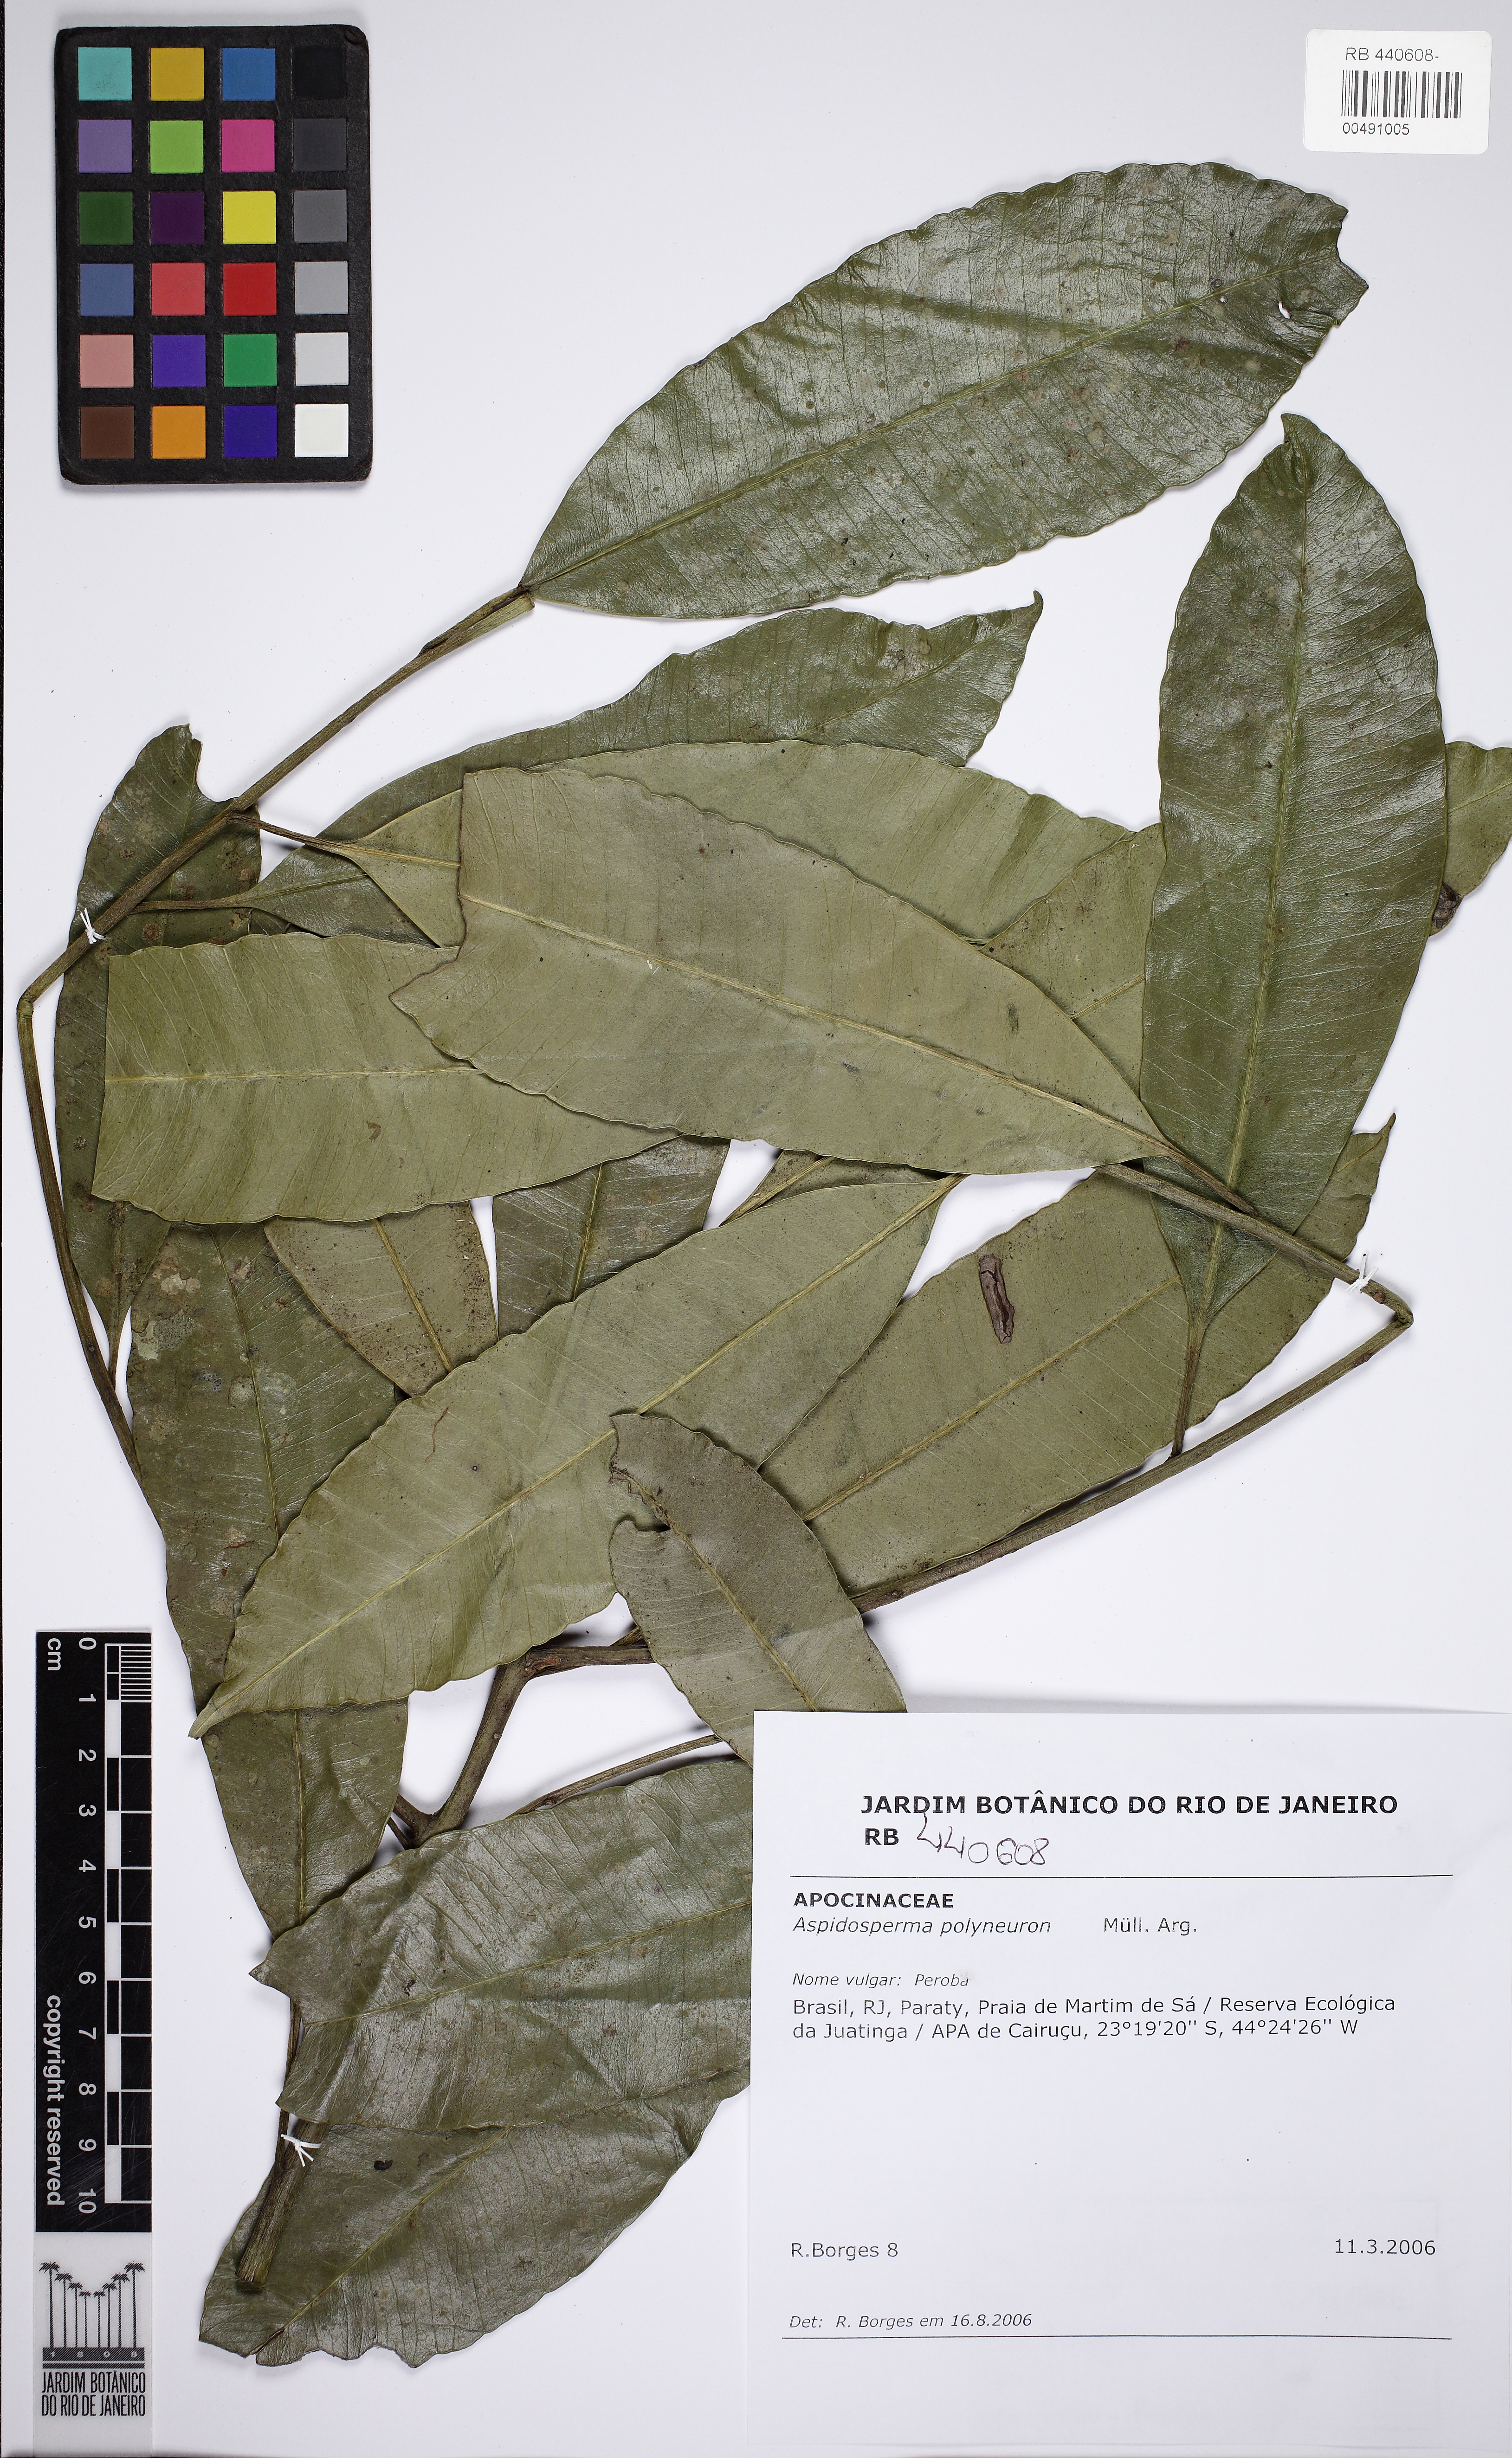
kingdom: Plantae
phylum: Tracheophyta
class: Magnoliopsida
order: Gentianales
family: Apocynaceae
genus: Aspidosperma
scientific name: Aspidosperma spruceanum
